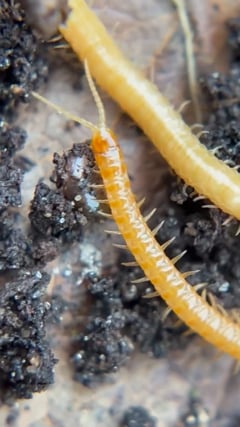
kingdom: Animalia
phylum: Arthropoda
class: Chilopoda
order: Geophilomorpha
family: Himantariidae
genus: Stigmatogaster
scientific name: Stigmatogaster subterranea
